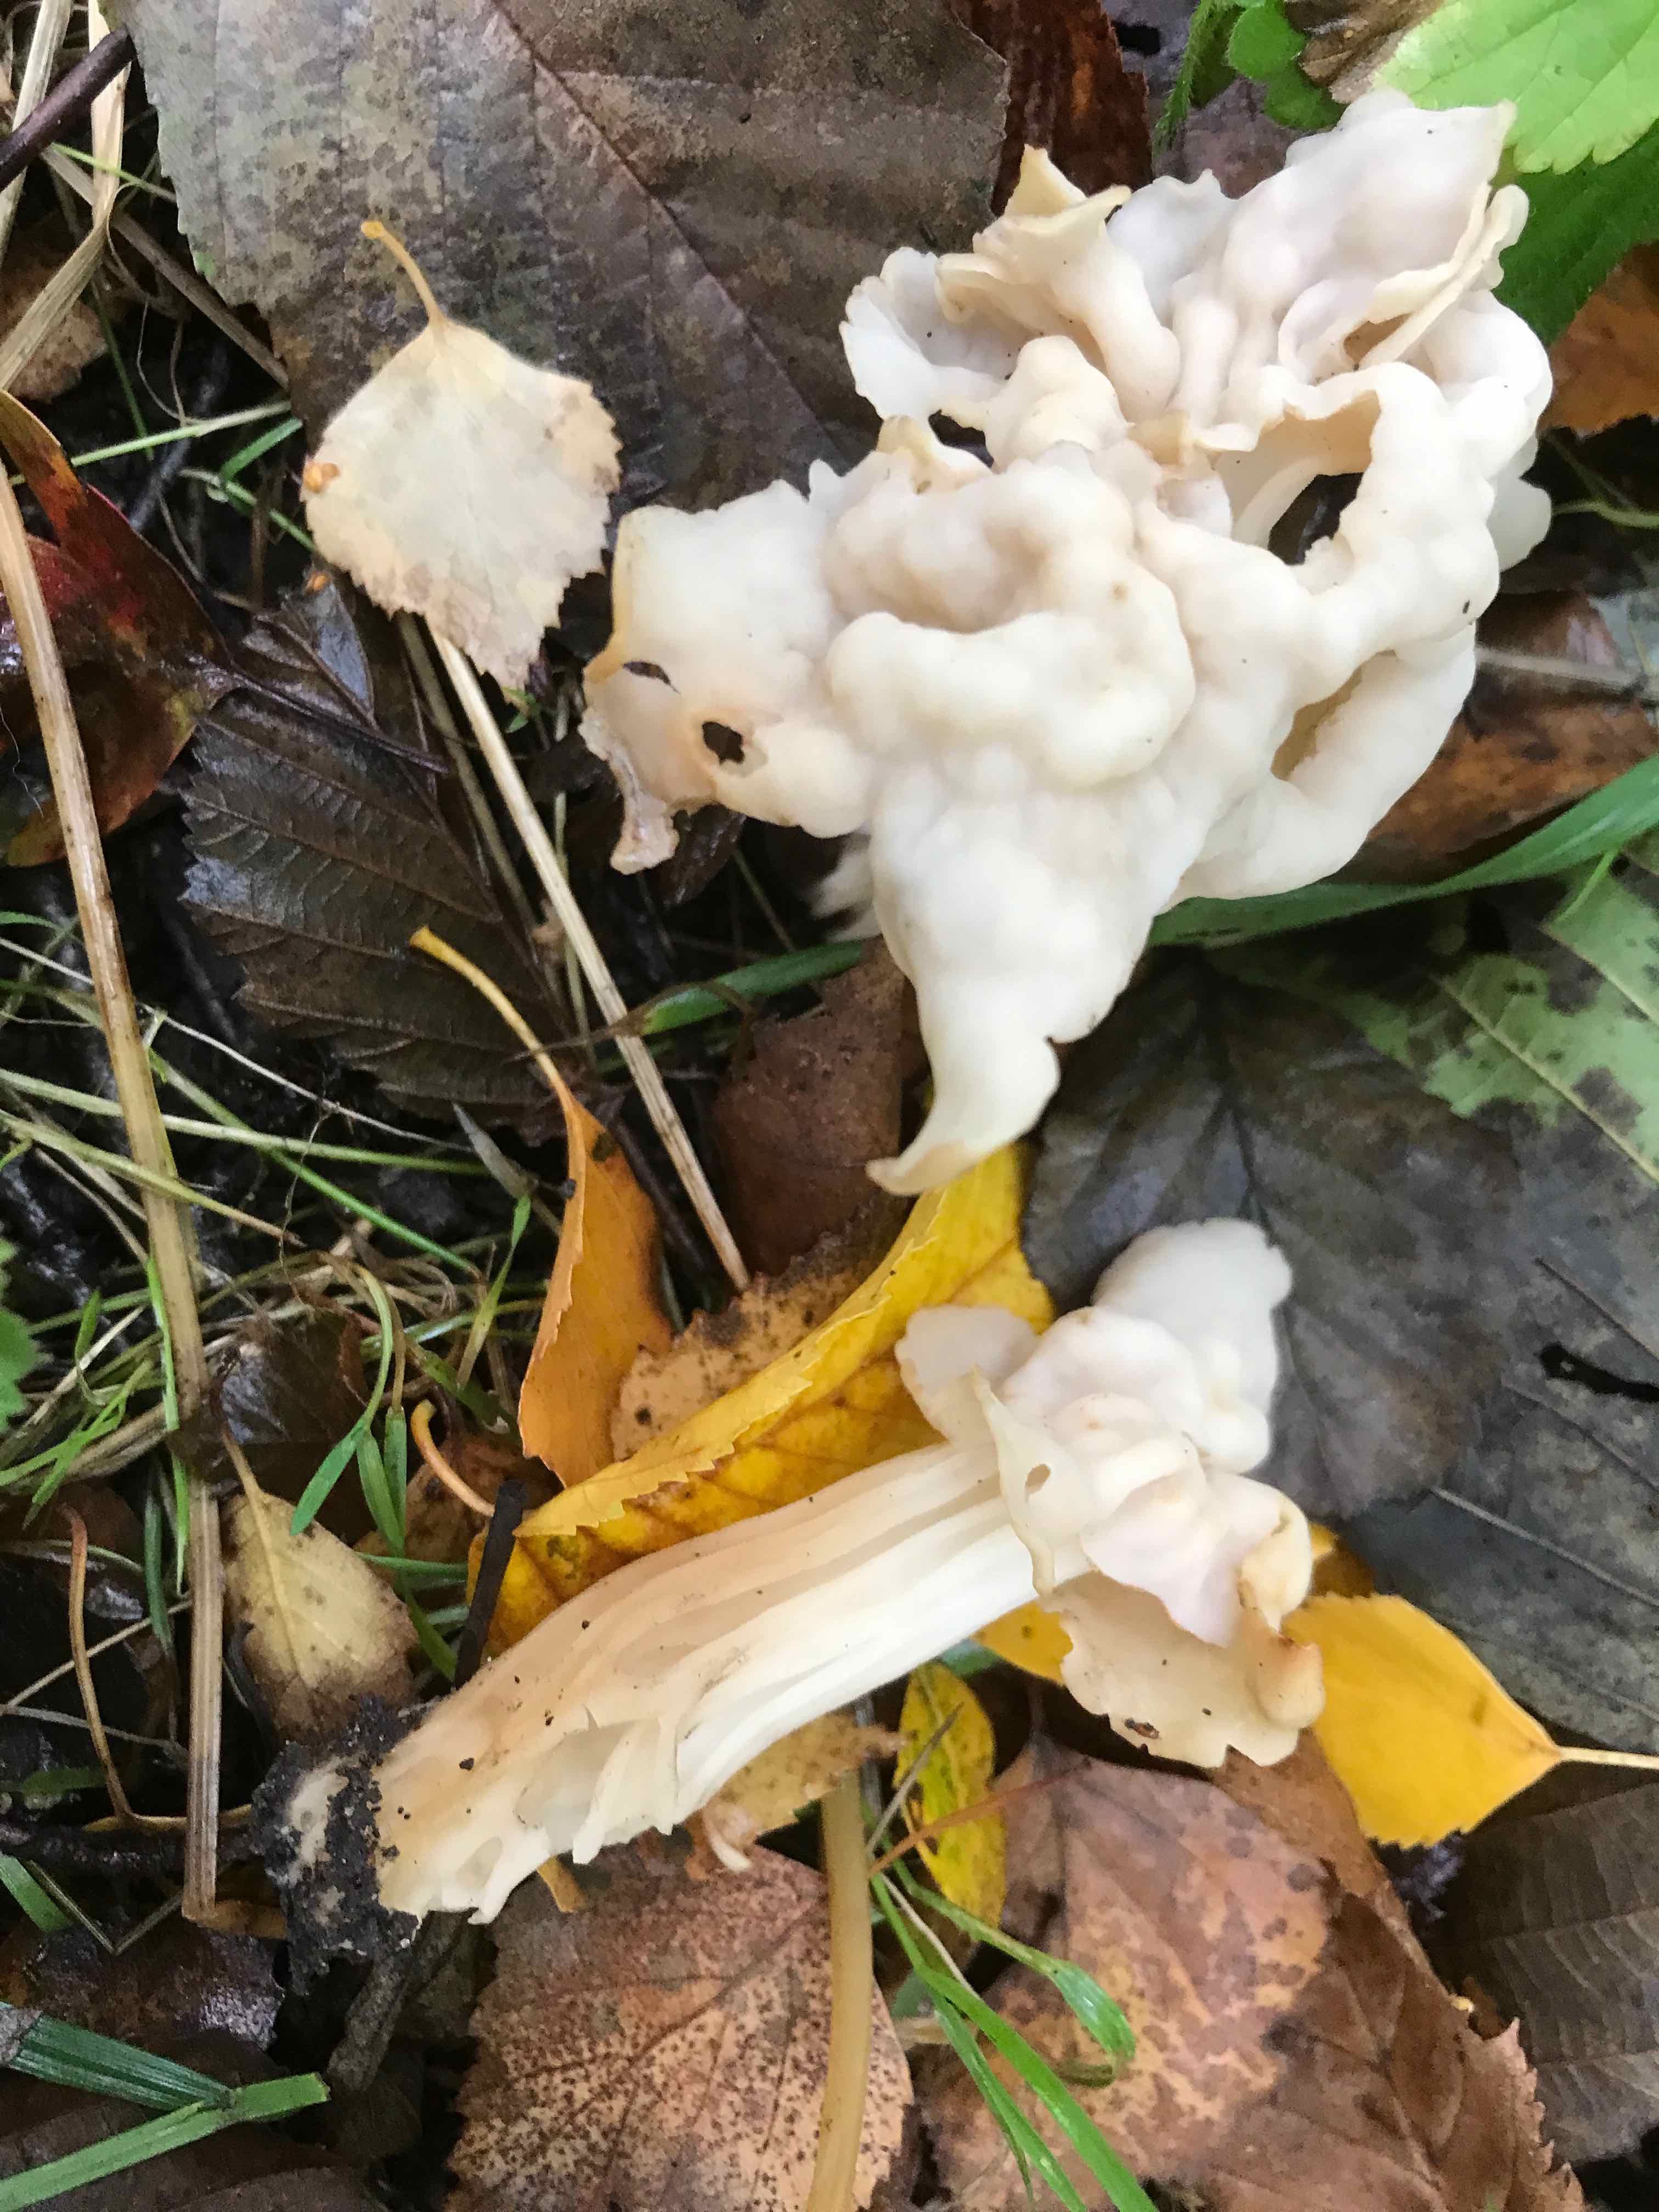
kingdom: Fungi
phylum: Ascomycota
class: Pezizomycetes
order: Pezizales
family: Helvellaceae
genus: Helvella
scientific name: Helvella crispa
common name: kruset foldhat
